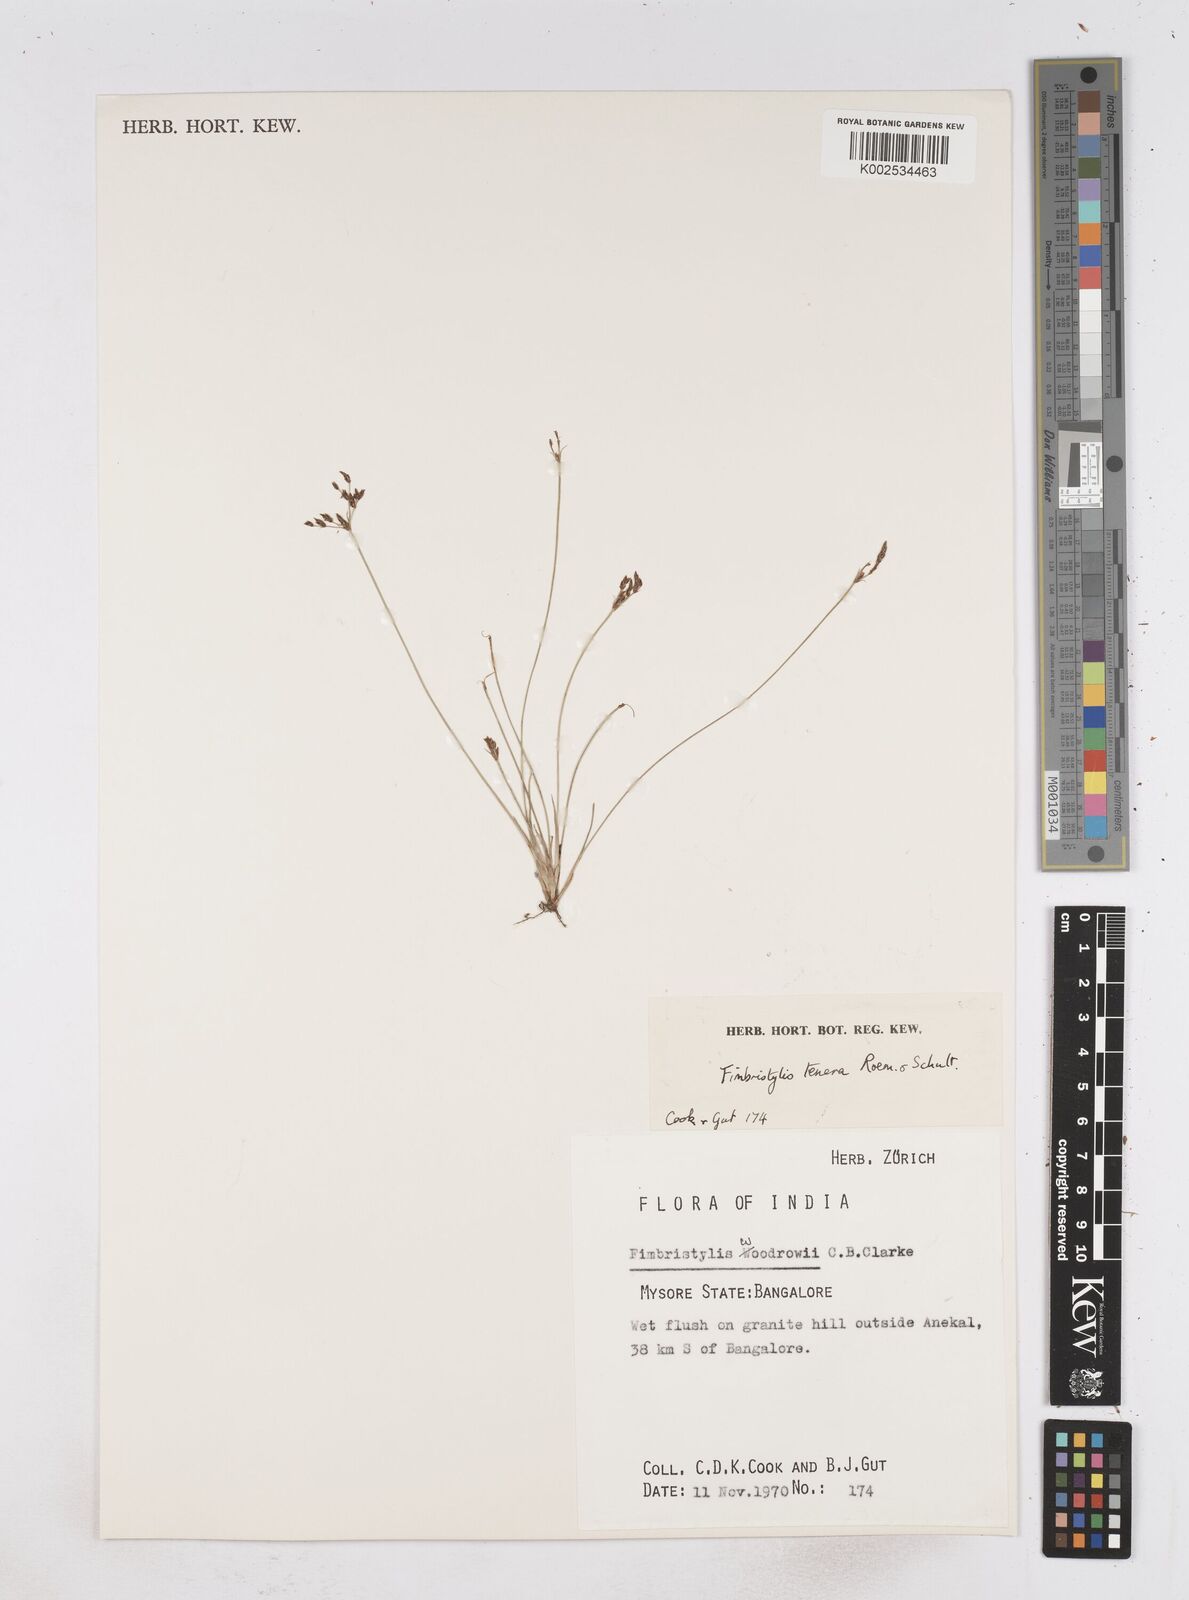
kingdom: Plantae
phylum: Tracheophyta
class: Liliopsida
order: Poales
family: Cyperaceae
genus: Fimbristylis
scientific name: Fimbristylis tenera
